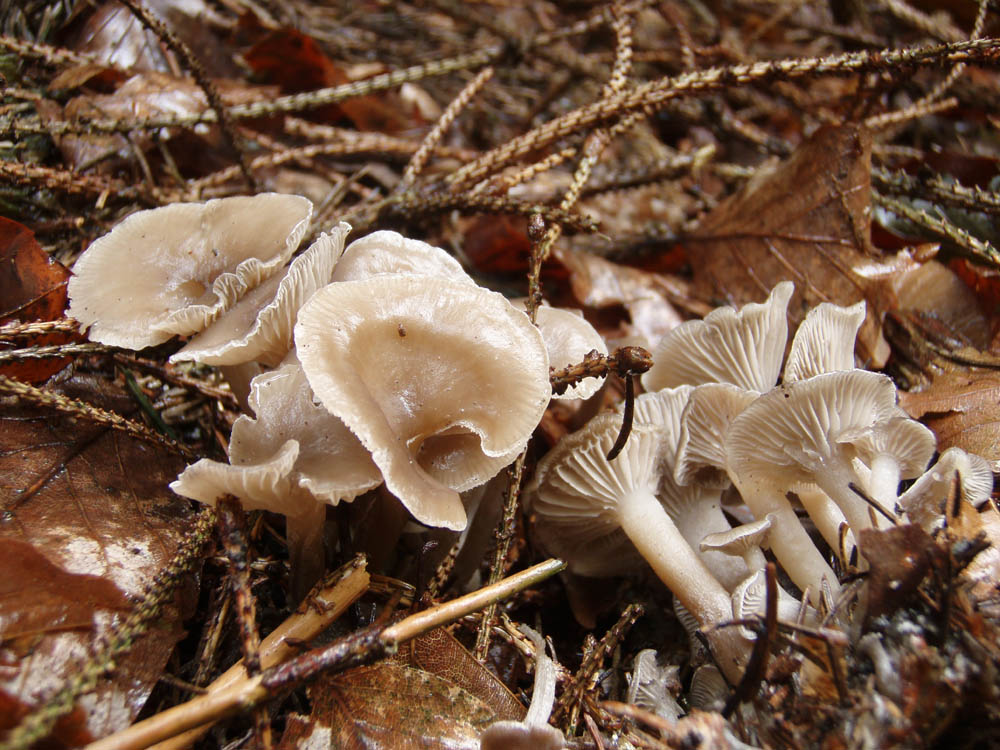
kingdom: Fungi
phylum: Basidiomycota
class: Agaricomycetes
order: Agaricales
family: Tricholomataceae
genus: Clitocybe
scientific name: Clitocybe metachroa
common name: grå tragthat
